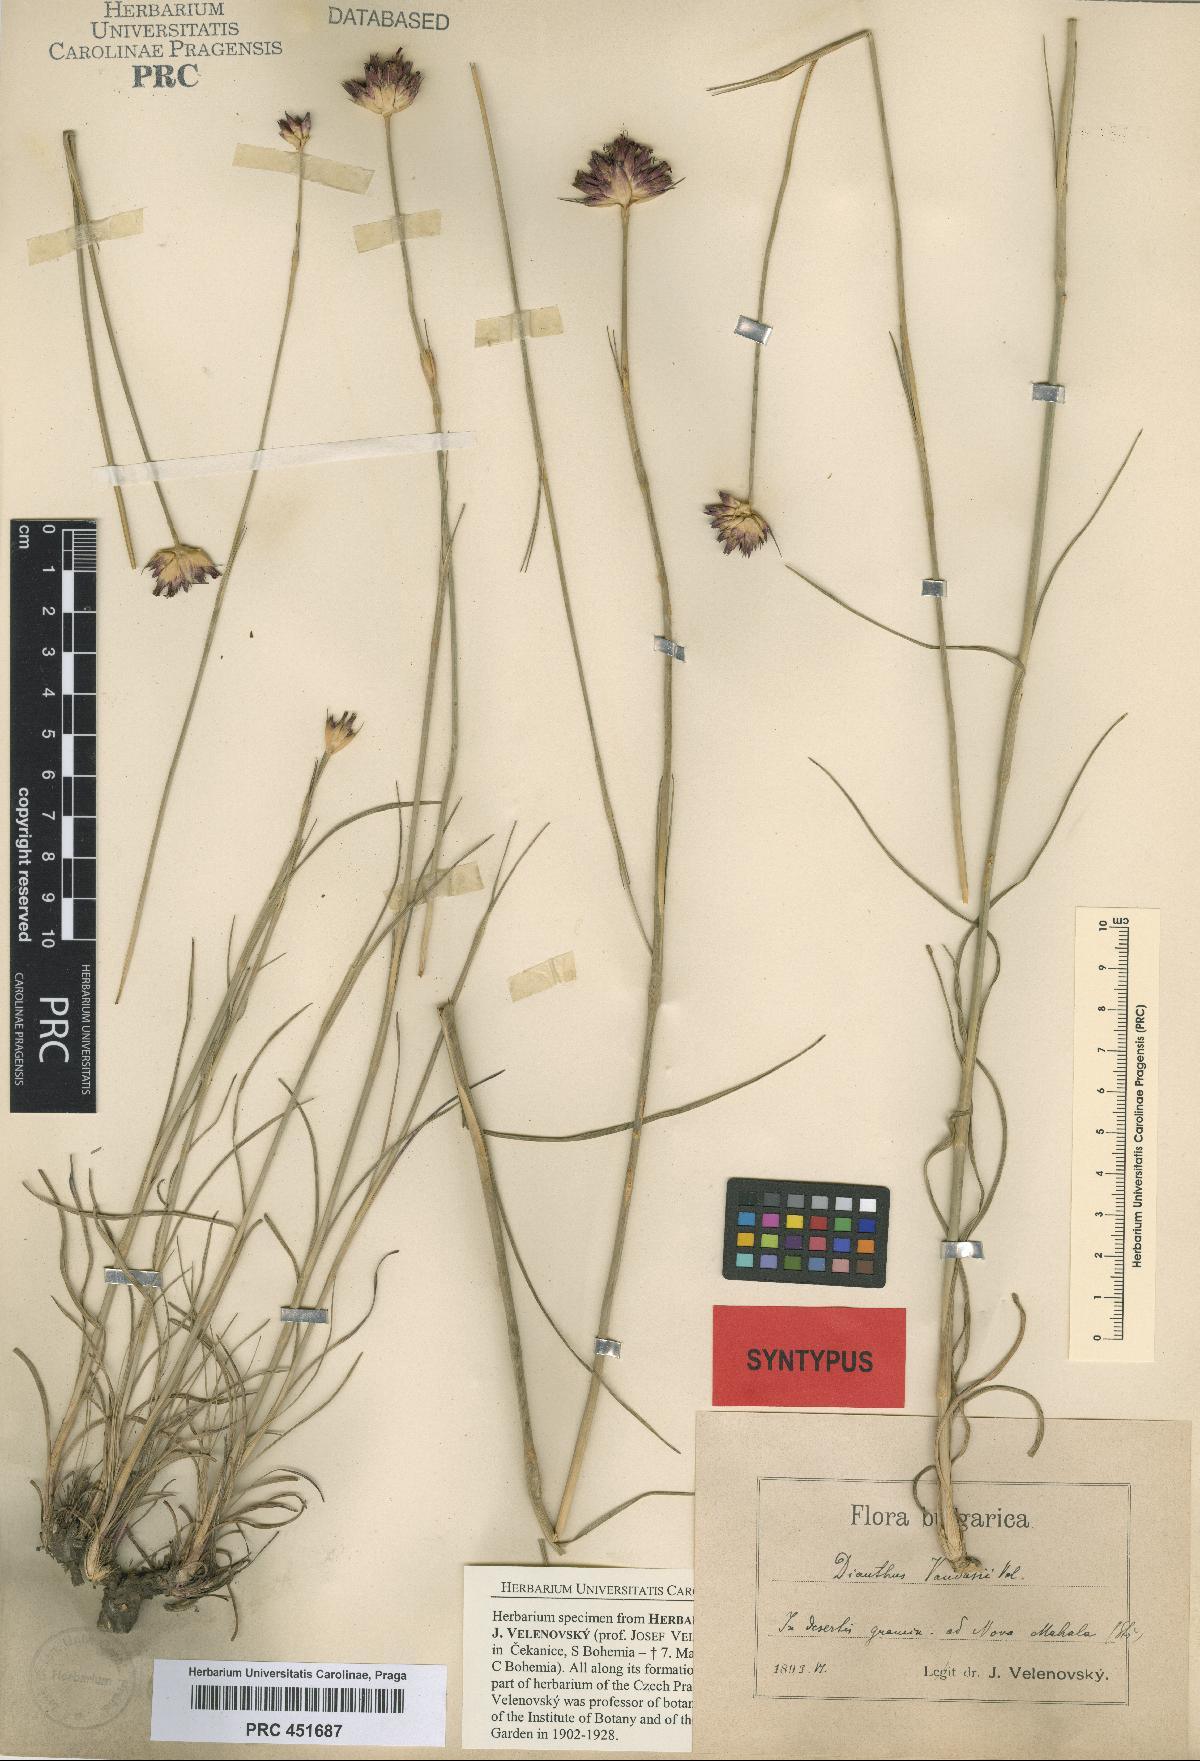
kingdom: Plantae
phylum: Tracheophyta
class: Magnoliopsida
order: Caryophyllales
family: Caryophyllaceae
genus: Dianthus
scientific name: Dianthus giganteus
